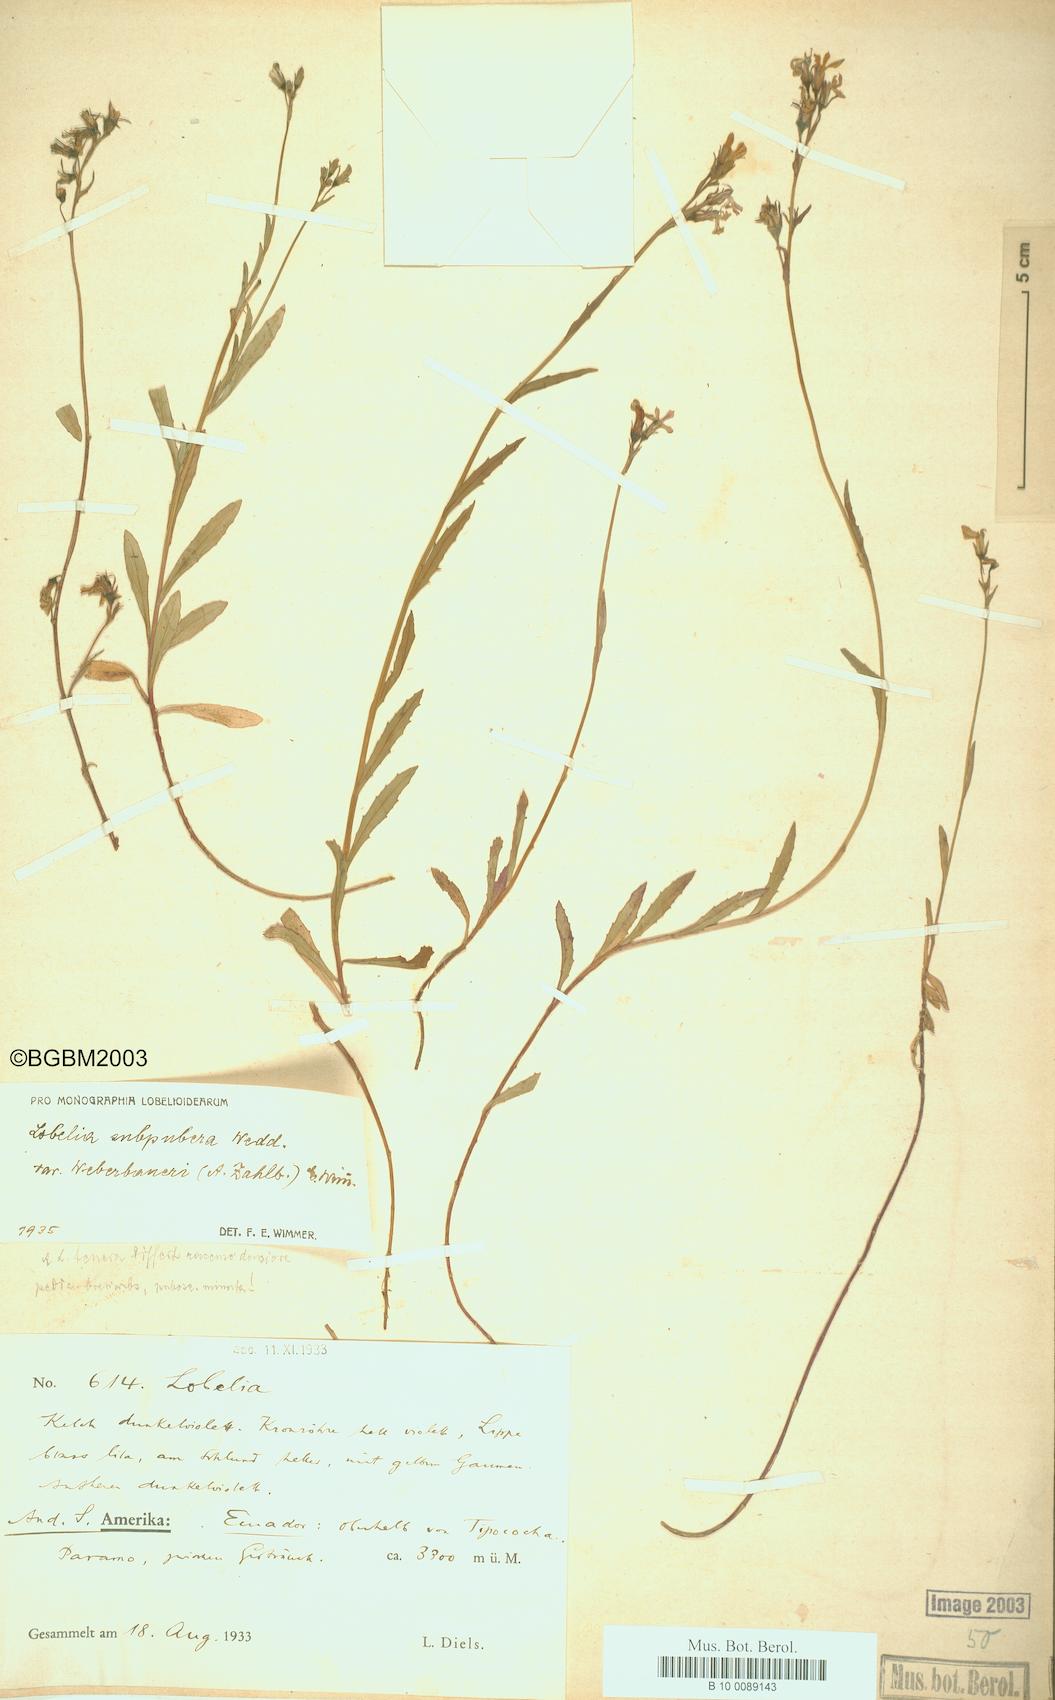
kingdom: Plantae
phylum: Tracheophyta
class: Magnoliopsida
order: Asterales
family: Campanulaceae
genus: Lobelia
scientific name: Lobelia subpubera
